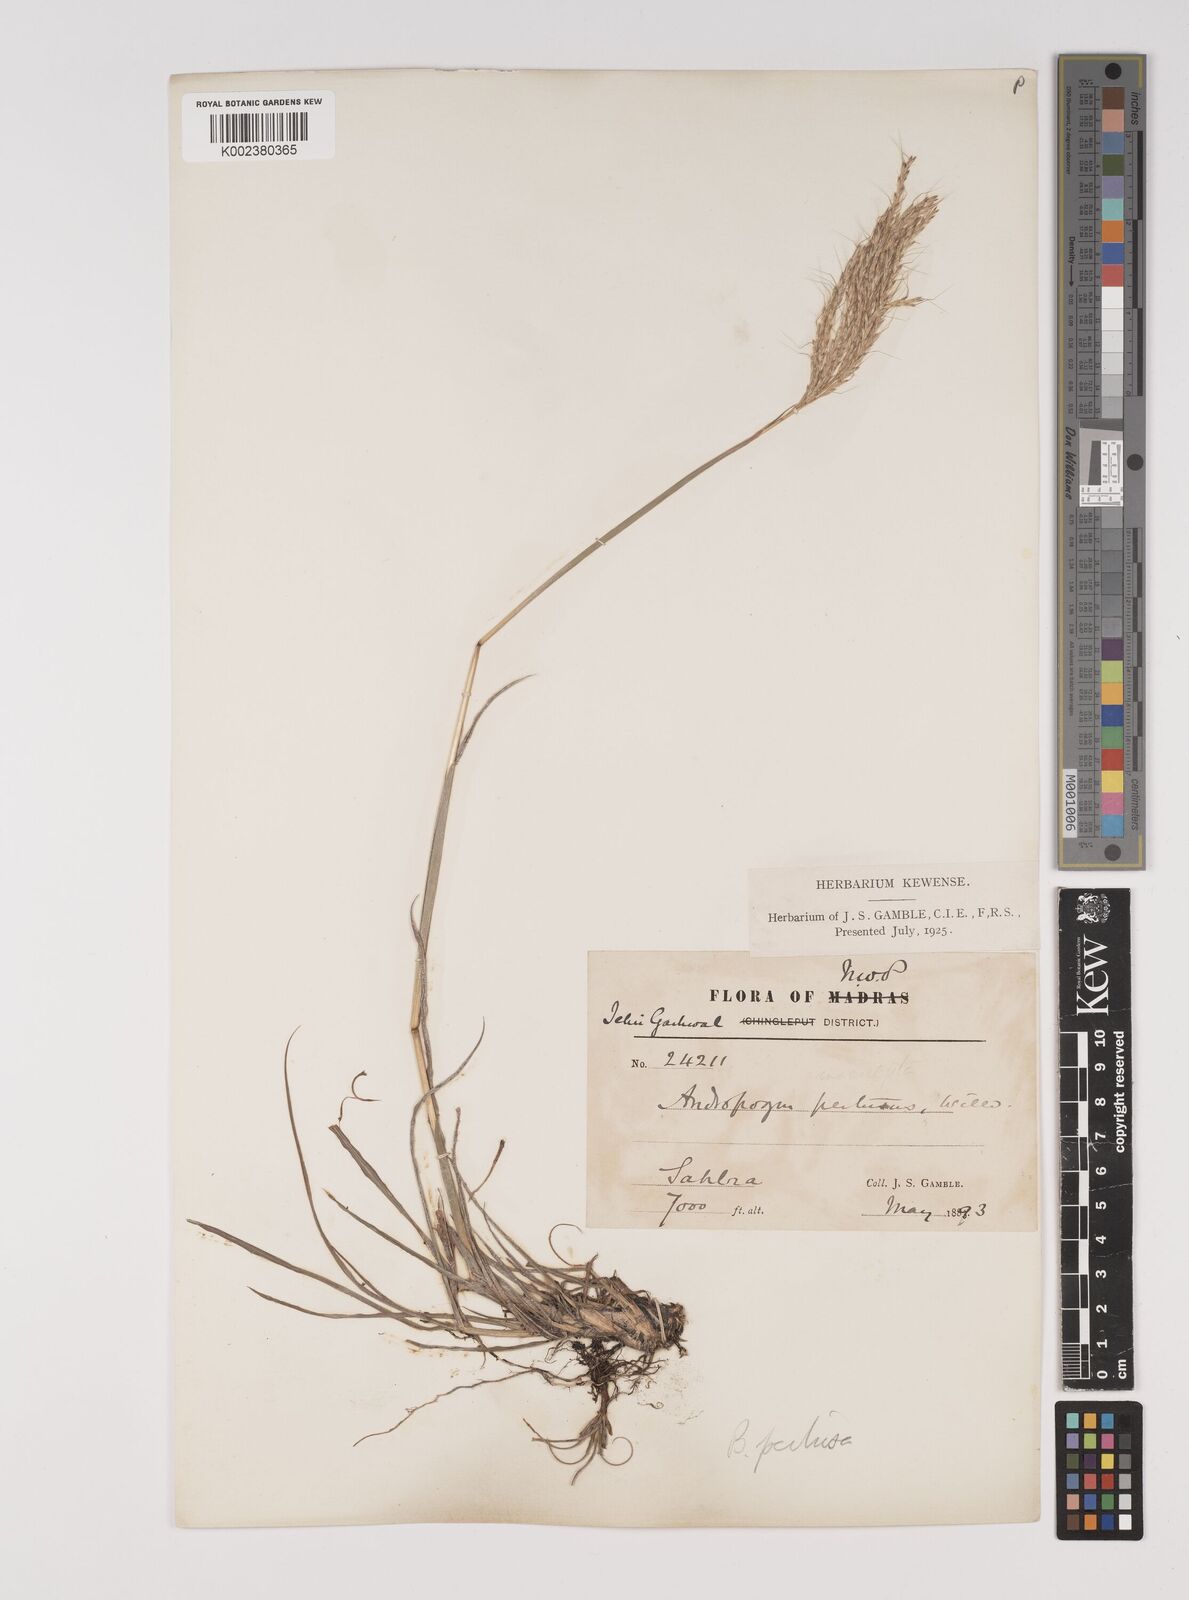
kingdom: Plantae
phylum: Tracheophyta
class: Liliopsida
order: Poales
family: Poaceae
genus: Bothriochloa
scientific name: Bothriochloa pertusa
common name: Pitted beardgrass
